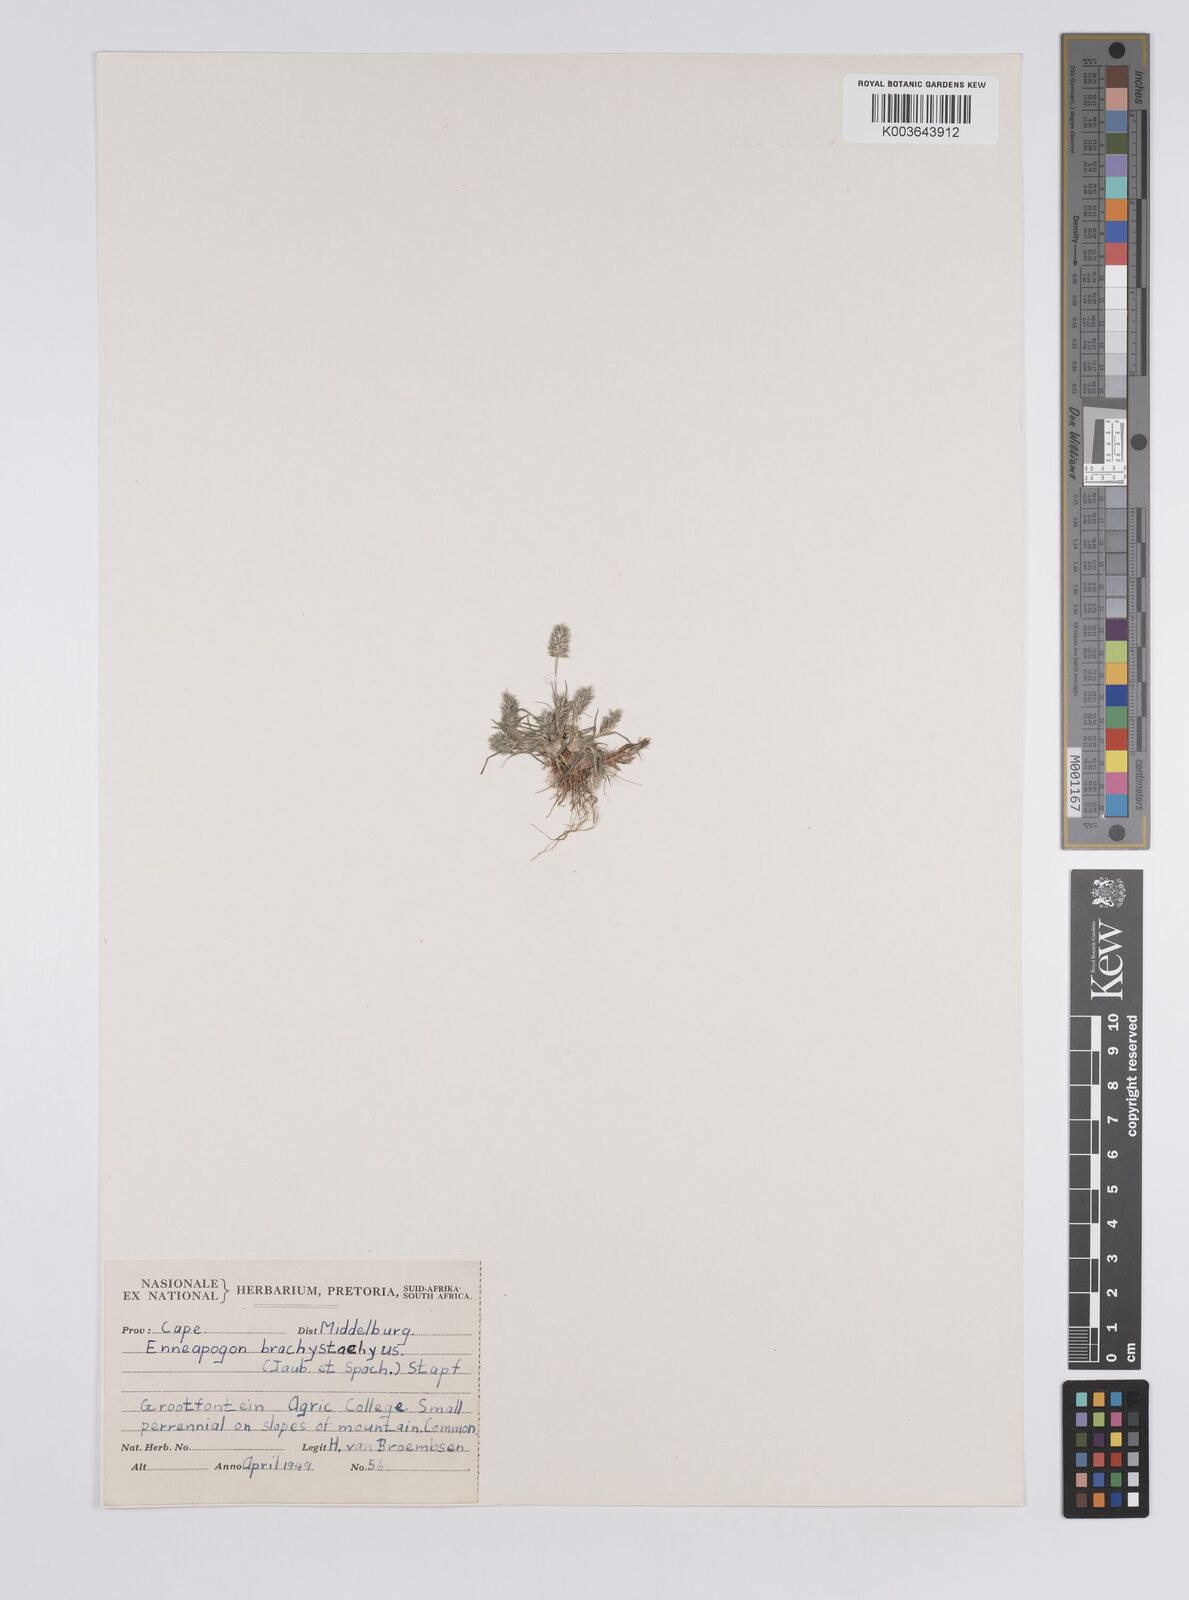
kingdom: Plantae
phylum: Tracheophyta
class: Liliopsida
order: Poales
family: Poaceae
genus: Enneapogon
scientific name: Enneapogon desvauxii
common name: Feather pappus grass
